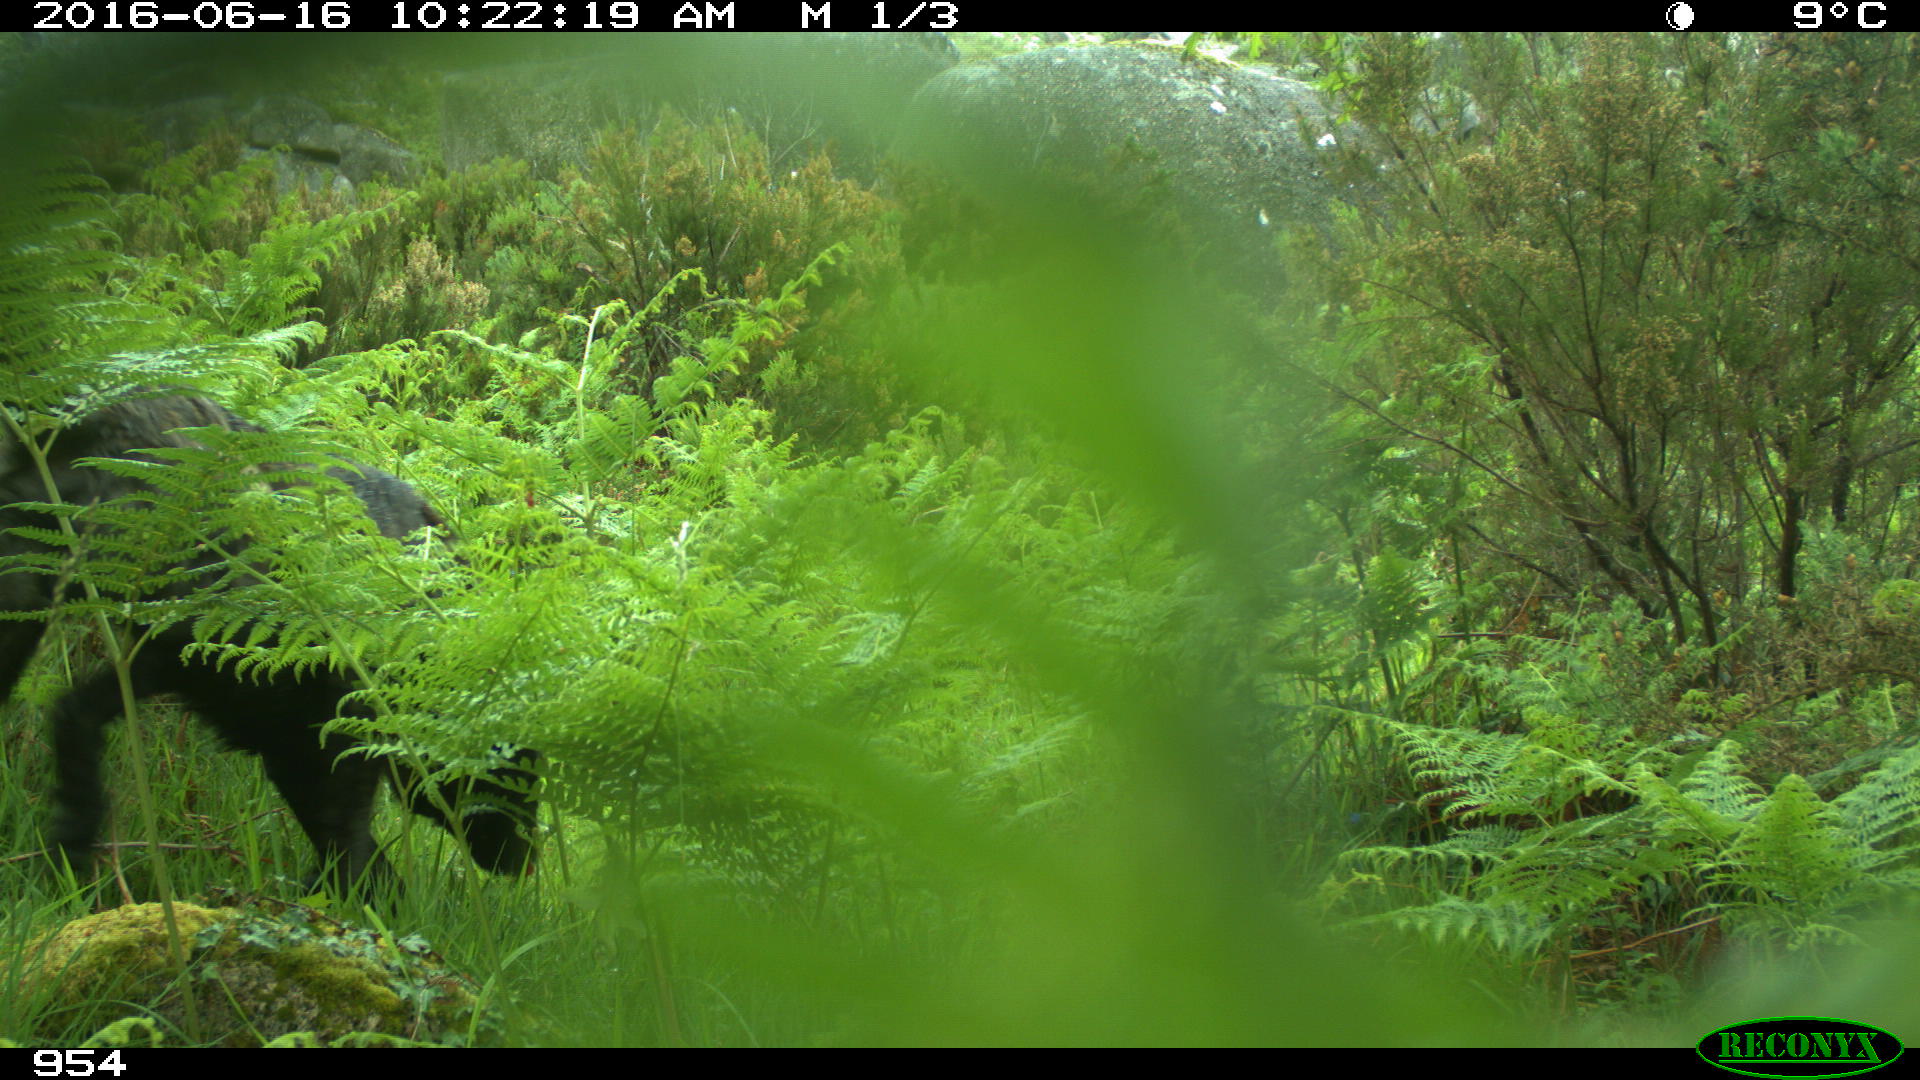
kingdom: Animalia
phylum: Chordata
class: Mammalia
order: Carnivora
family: Canidae
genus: Canis
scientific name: Canis lupus
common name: Gray wolf
